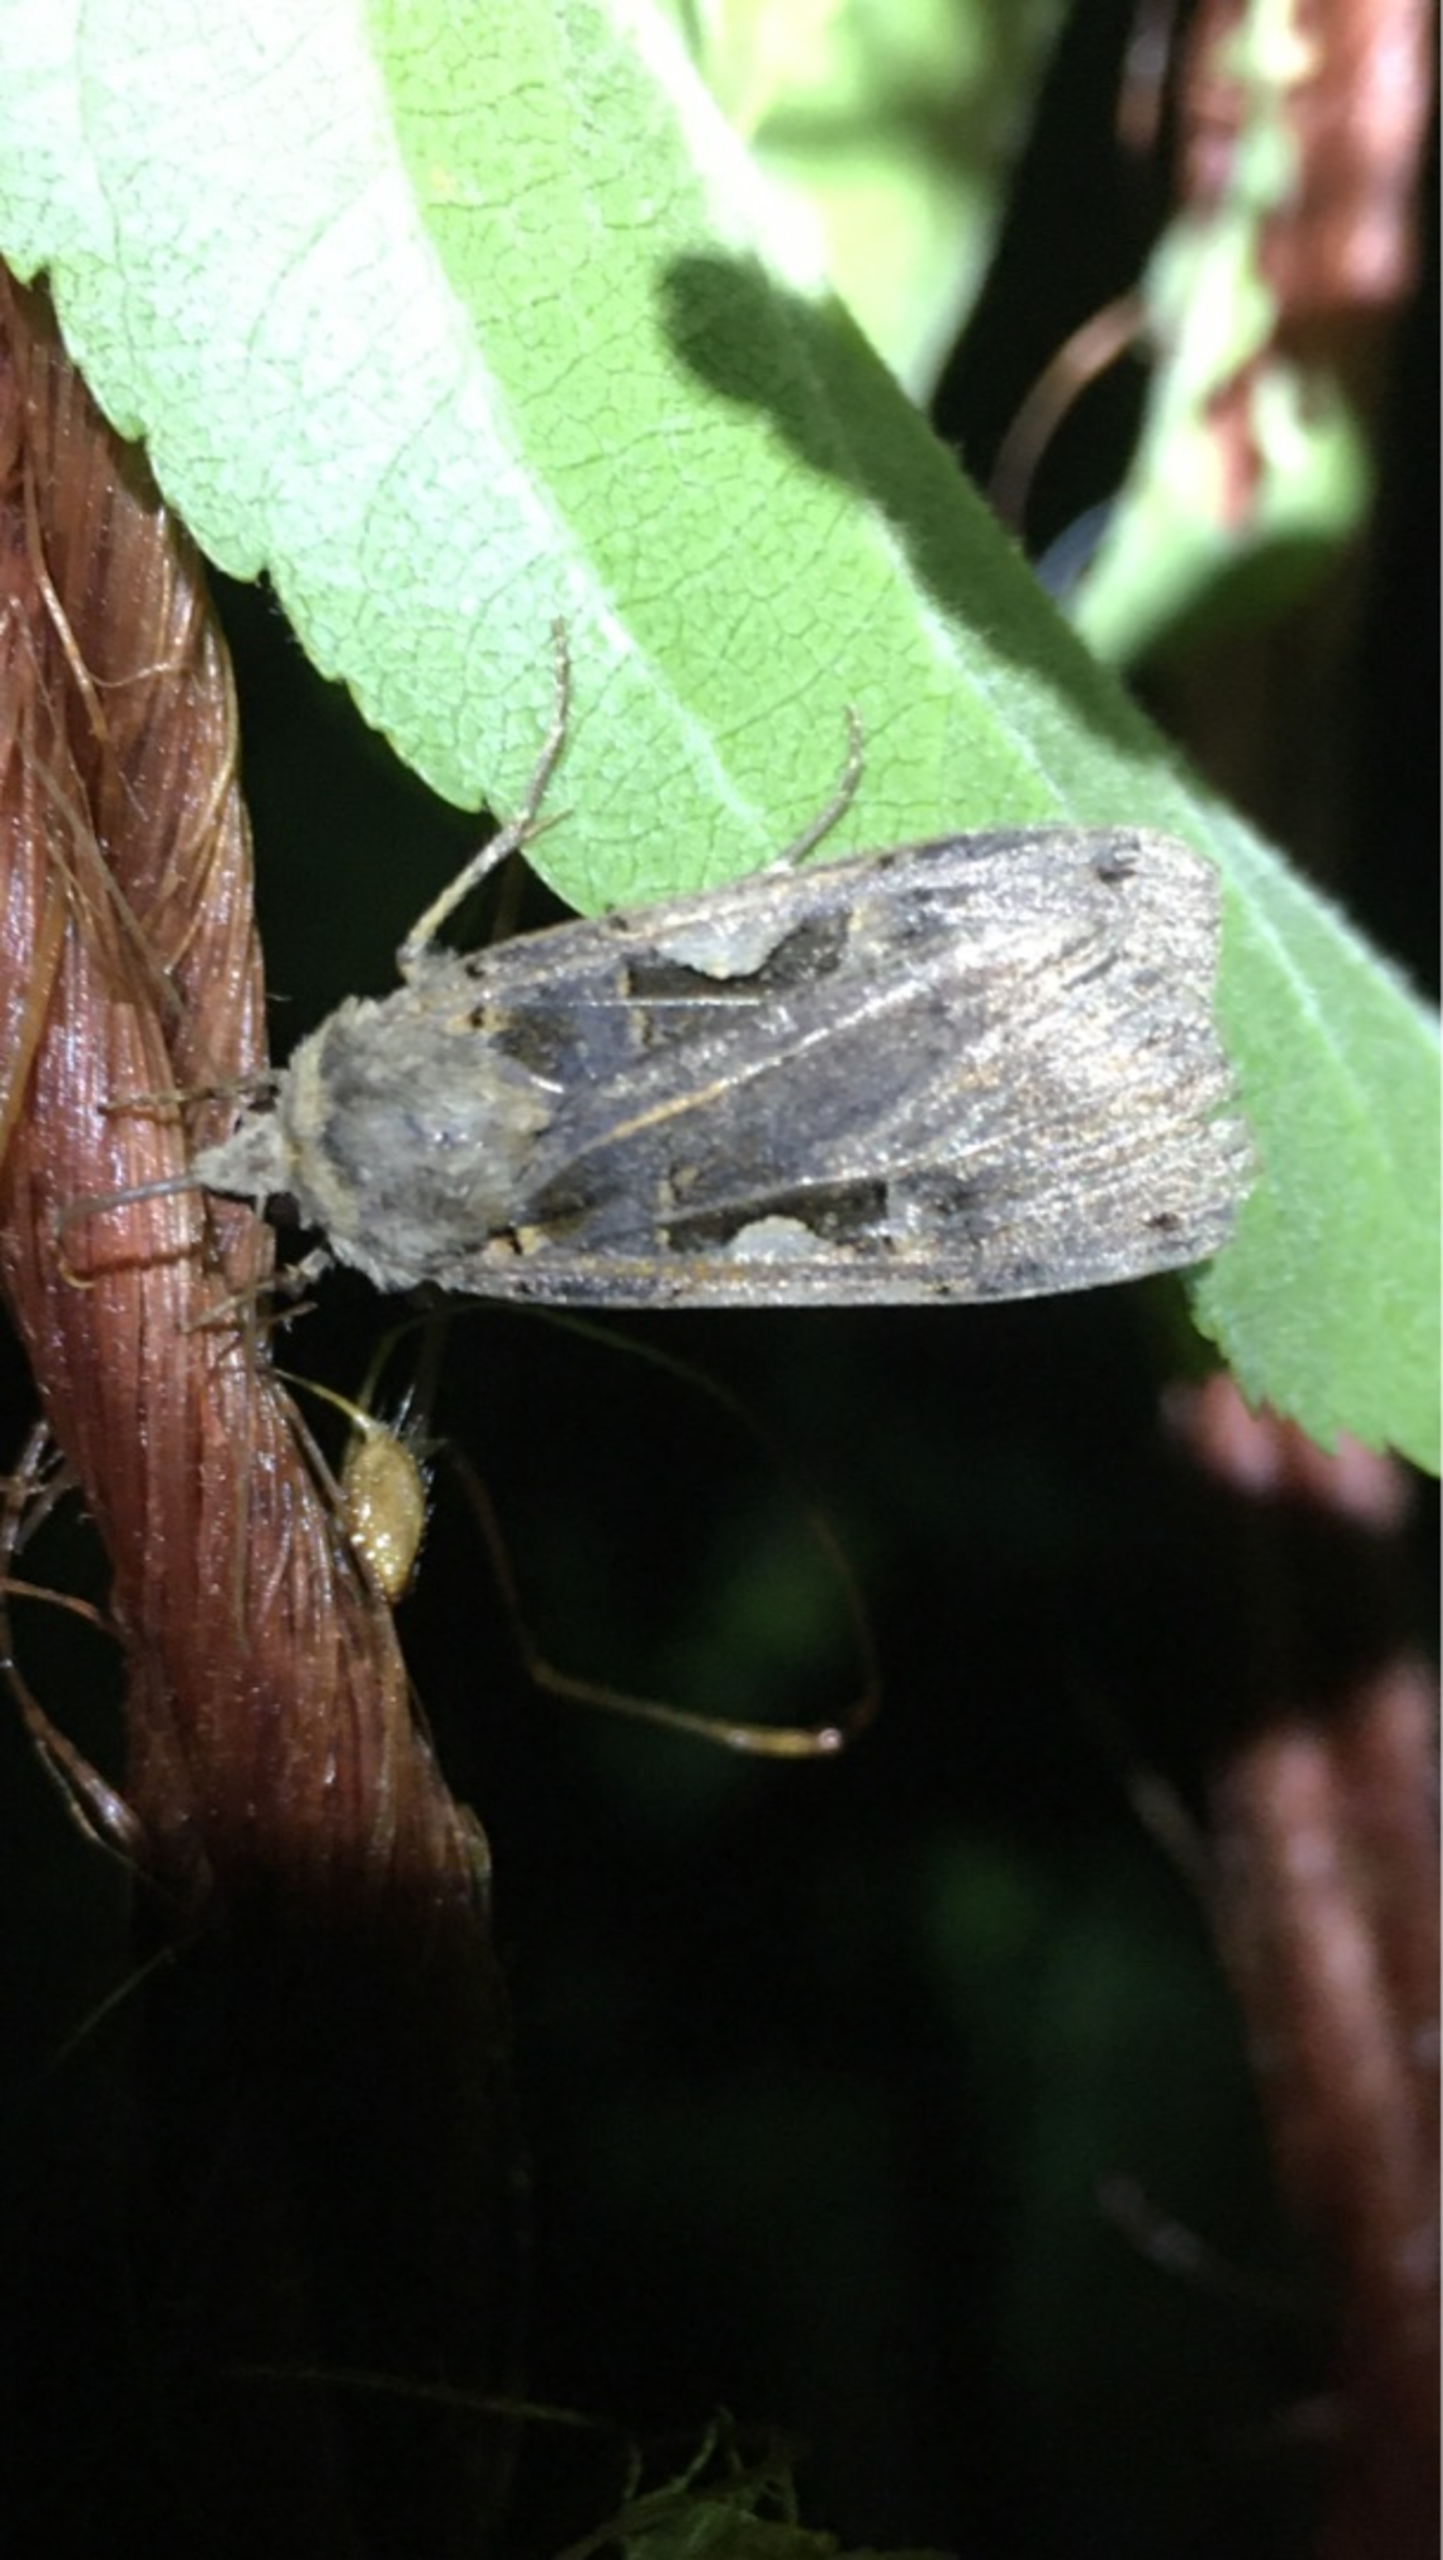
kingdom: Animalia
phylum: Arthropoda
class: Insecta
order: Lepidoptera
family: Noctuidae
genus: Xestia
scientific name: Xestia c-nigrum
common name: Det sorte c
